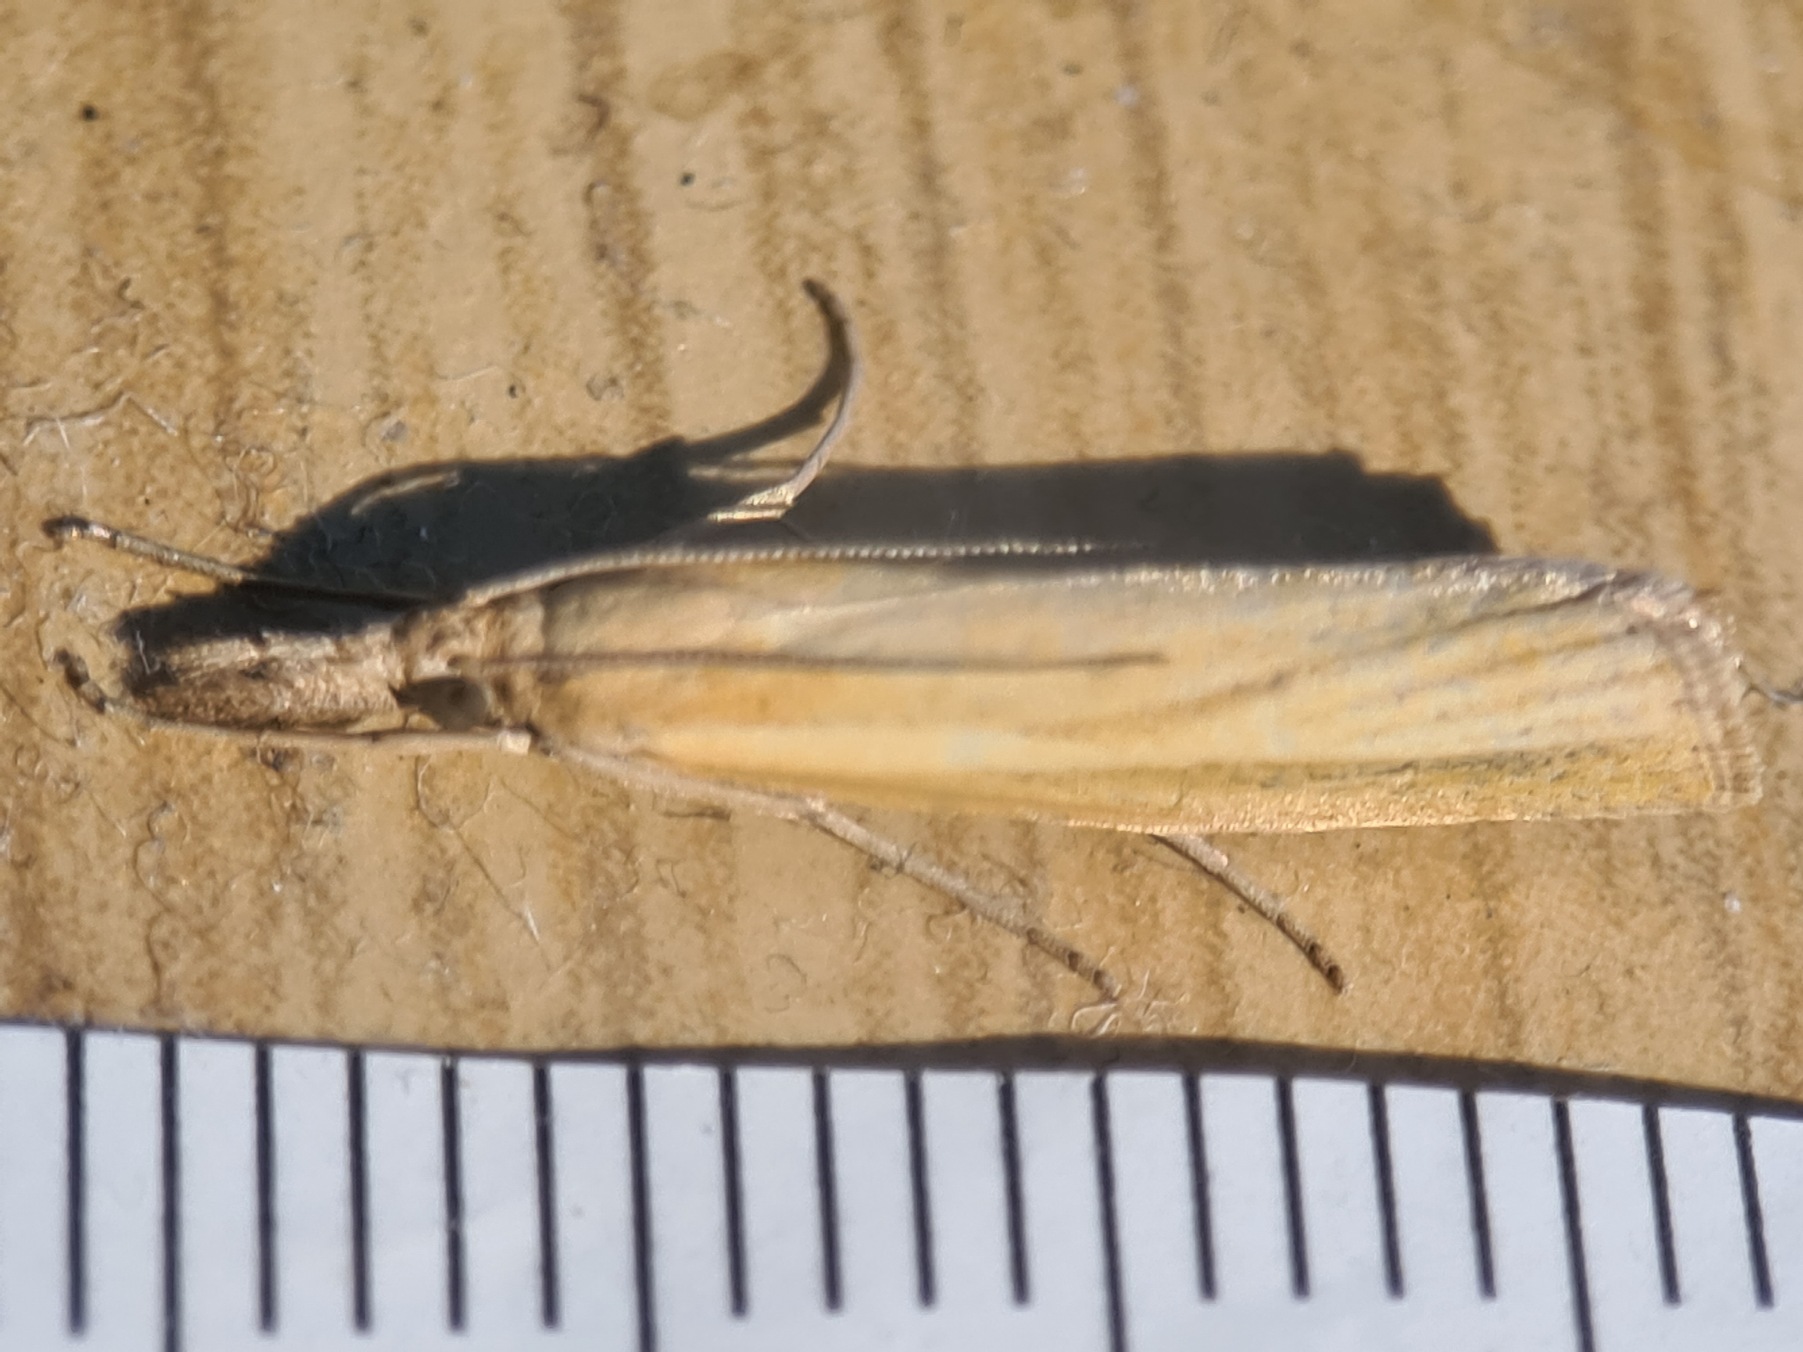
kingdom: Animalia
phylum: Arthropoda
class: Insecta
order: Lepidoptera
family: Crambidae
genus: Agriphila
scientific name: Agriphila tristellus
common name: Okkergult græsmøl
